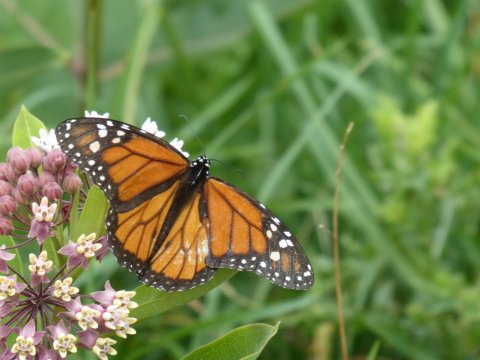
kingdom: Animalia
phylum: Arthropoda
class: Insecta
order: Lepidoptera
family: Nymphalidae
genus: Danaus
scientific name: Danaus plexippus
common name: Monarch
